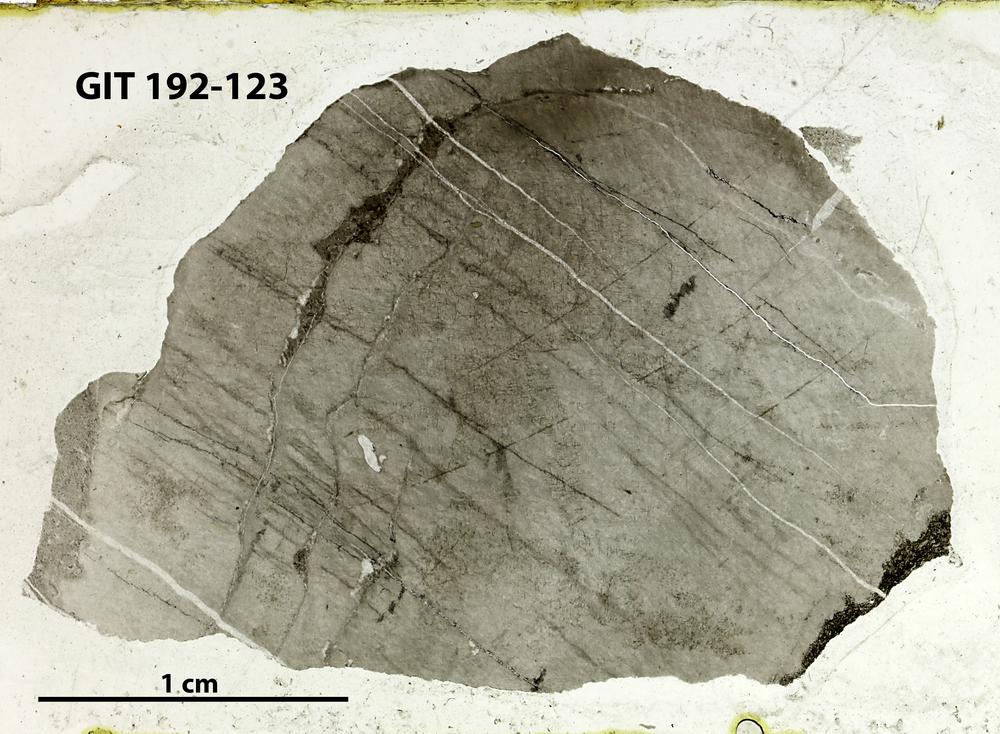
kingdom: Animalia
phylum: Porifera
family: Stromatoporellidae
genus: Simplexodictyon
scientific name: Simplexodictyon
